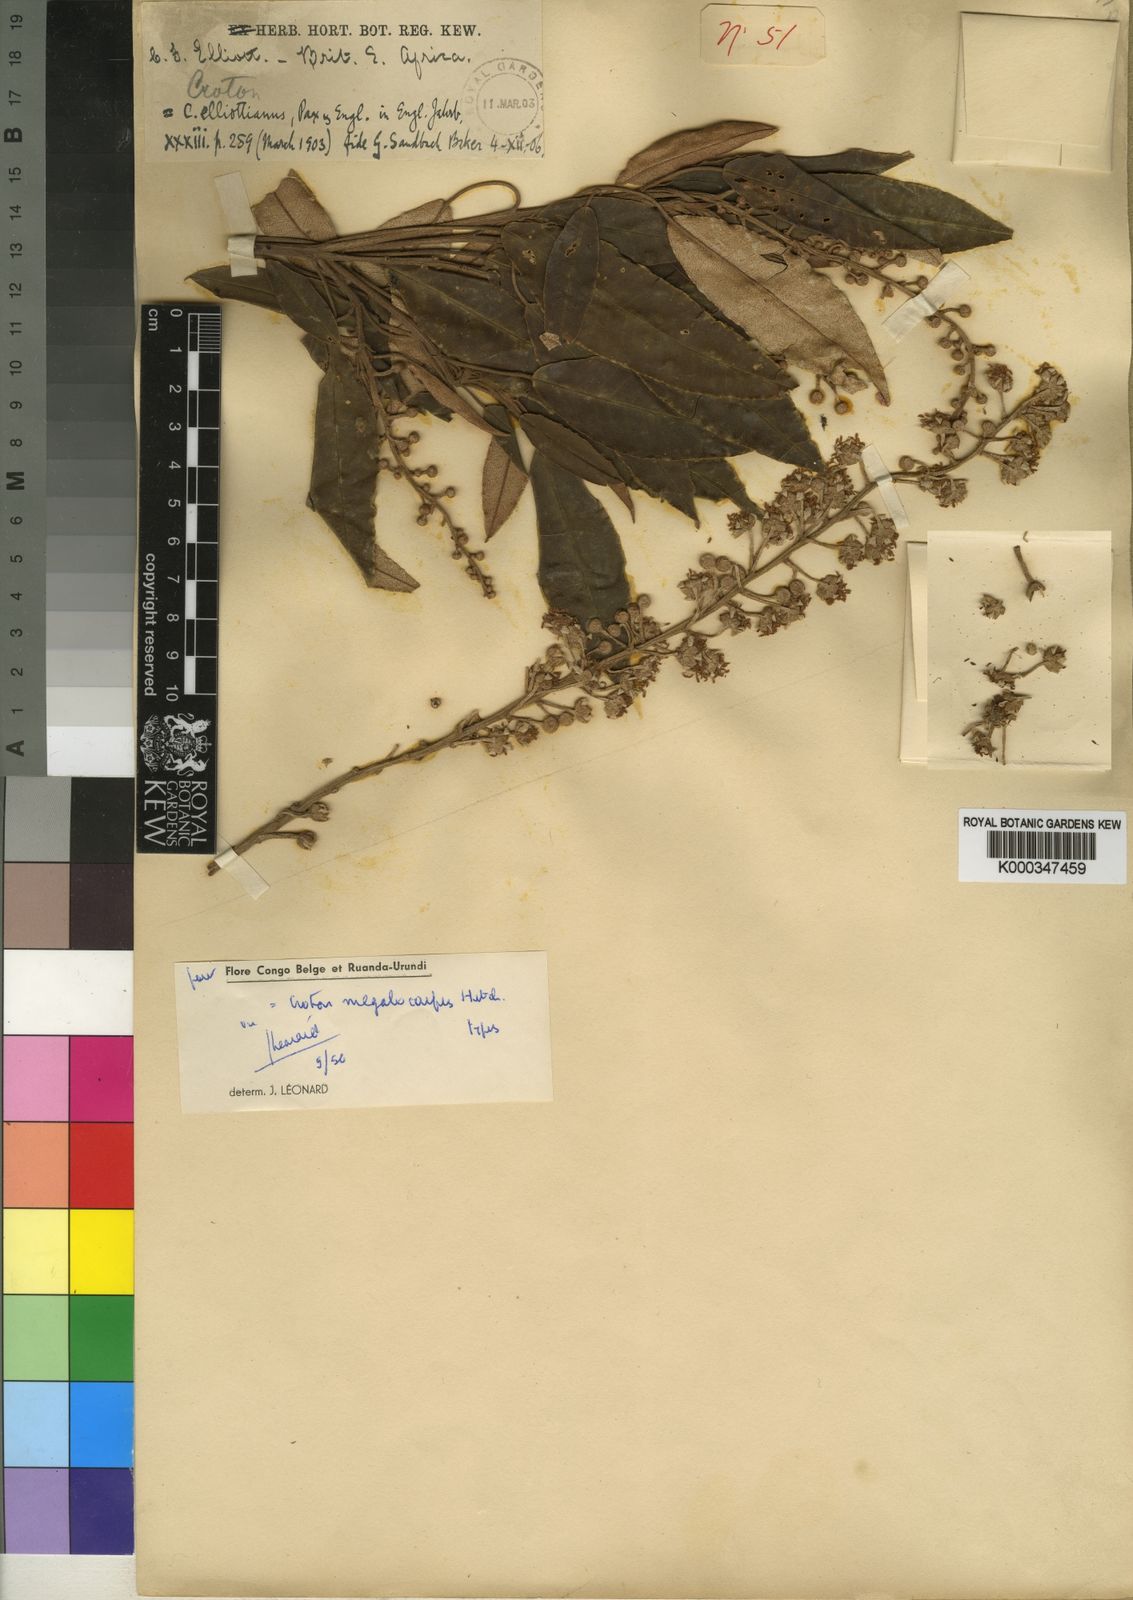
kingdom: Plantae
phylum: Tracheophyta
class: Magnoliopsida
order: Malpighiales
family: Euphorbiaceae
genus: Croton
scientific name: Croton megalocarpus
